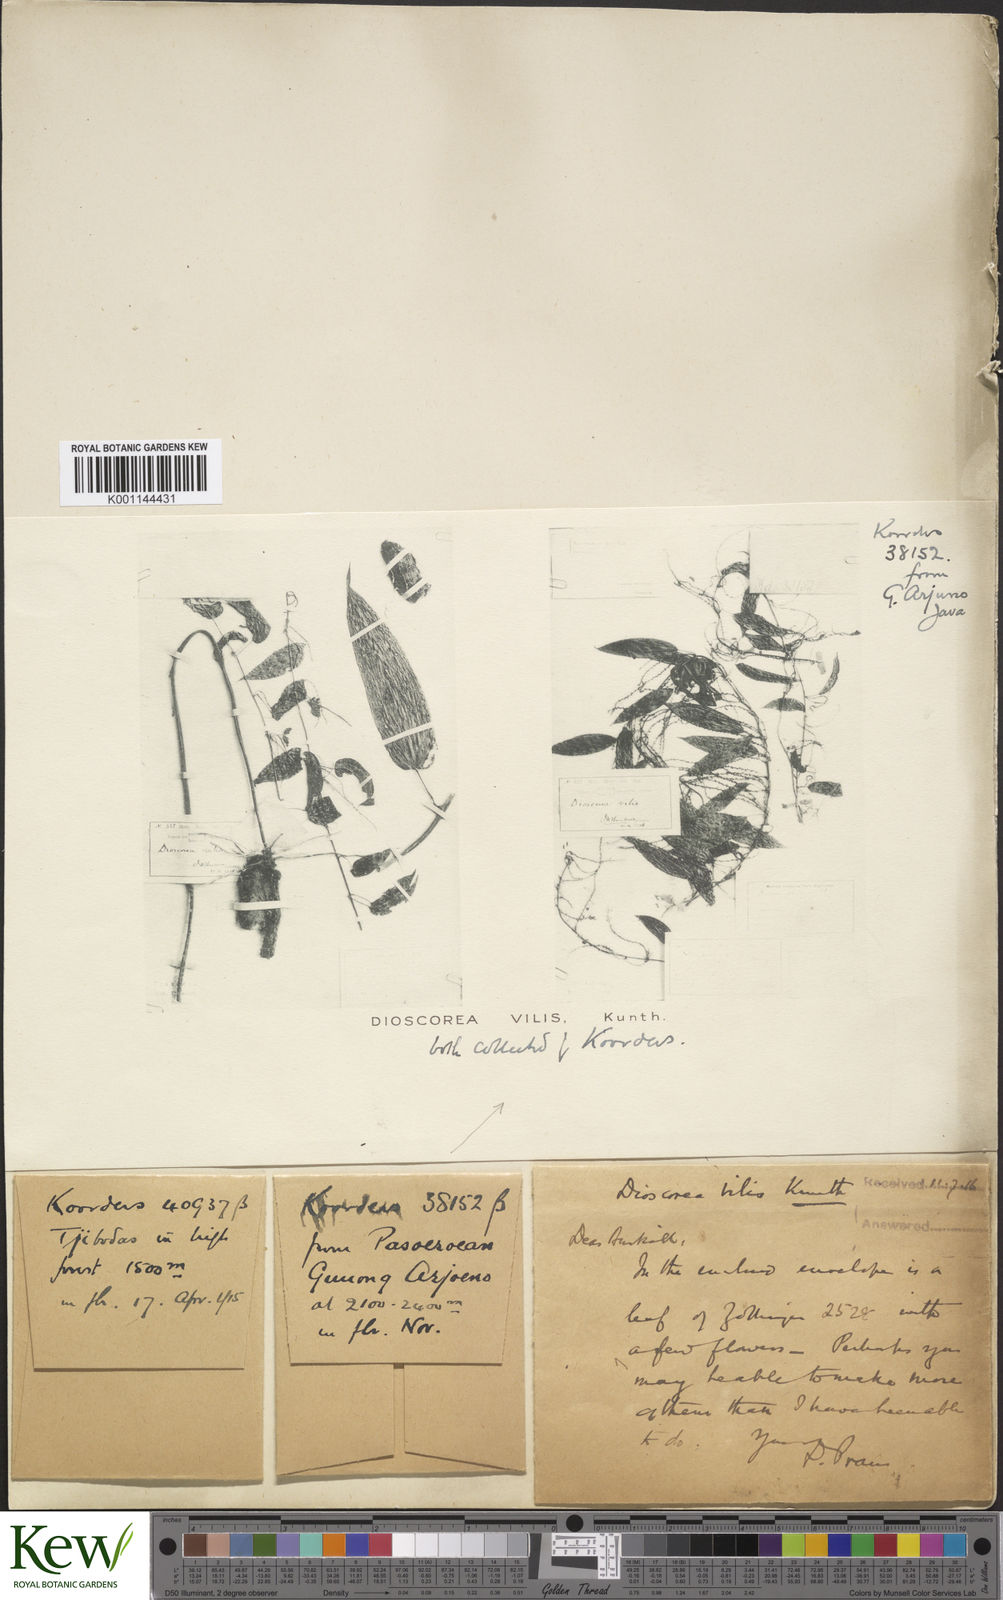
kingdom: Plantae
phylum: Tracheophyta
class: Liliopsida
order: Dioscoreales
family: Dioscoreaceae
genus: Dioscorea
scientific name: Dioscorea filiformis
